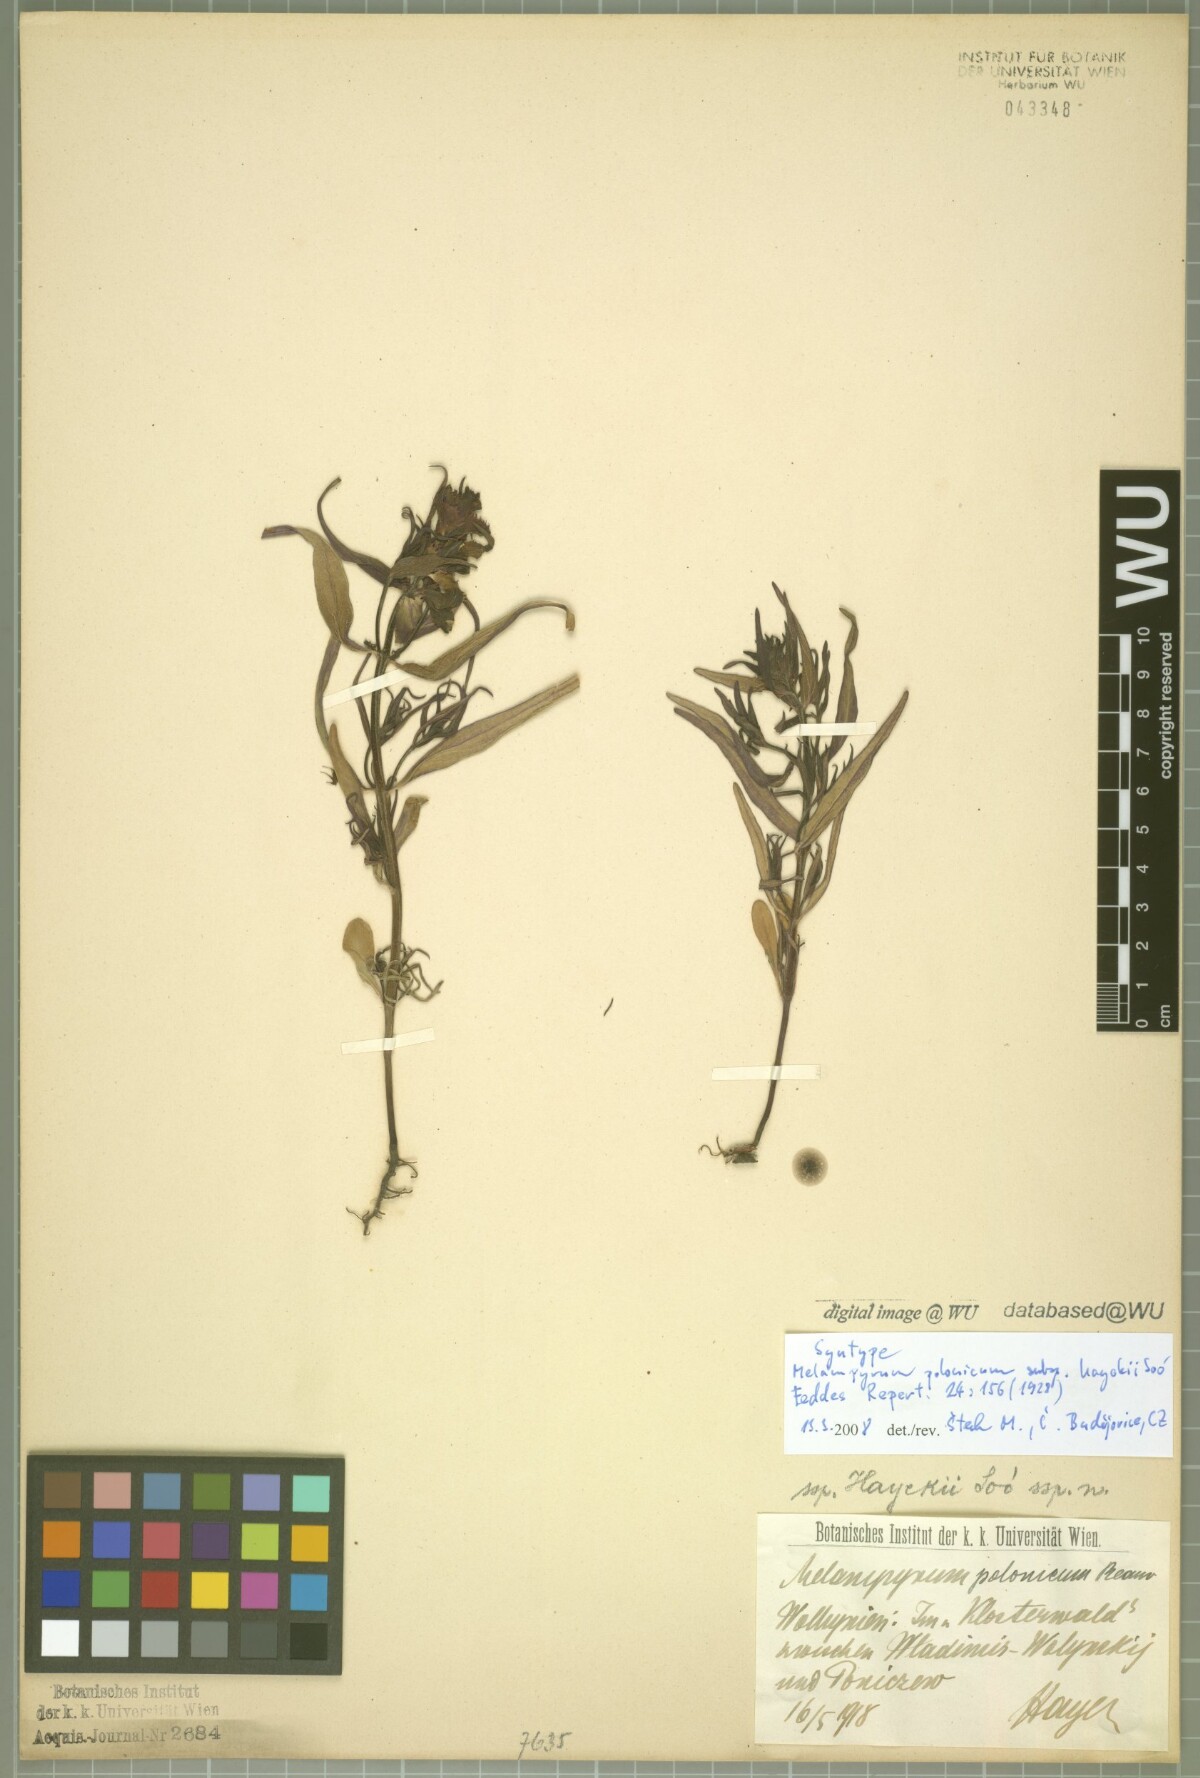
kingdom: Plantae
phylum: Tracheophyta
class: Magnoliopsida
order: Lamiales
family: Orobanchaceae
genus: Melampyrum
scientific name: Melampyrum polonicum
